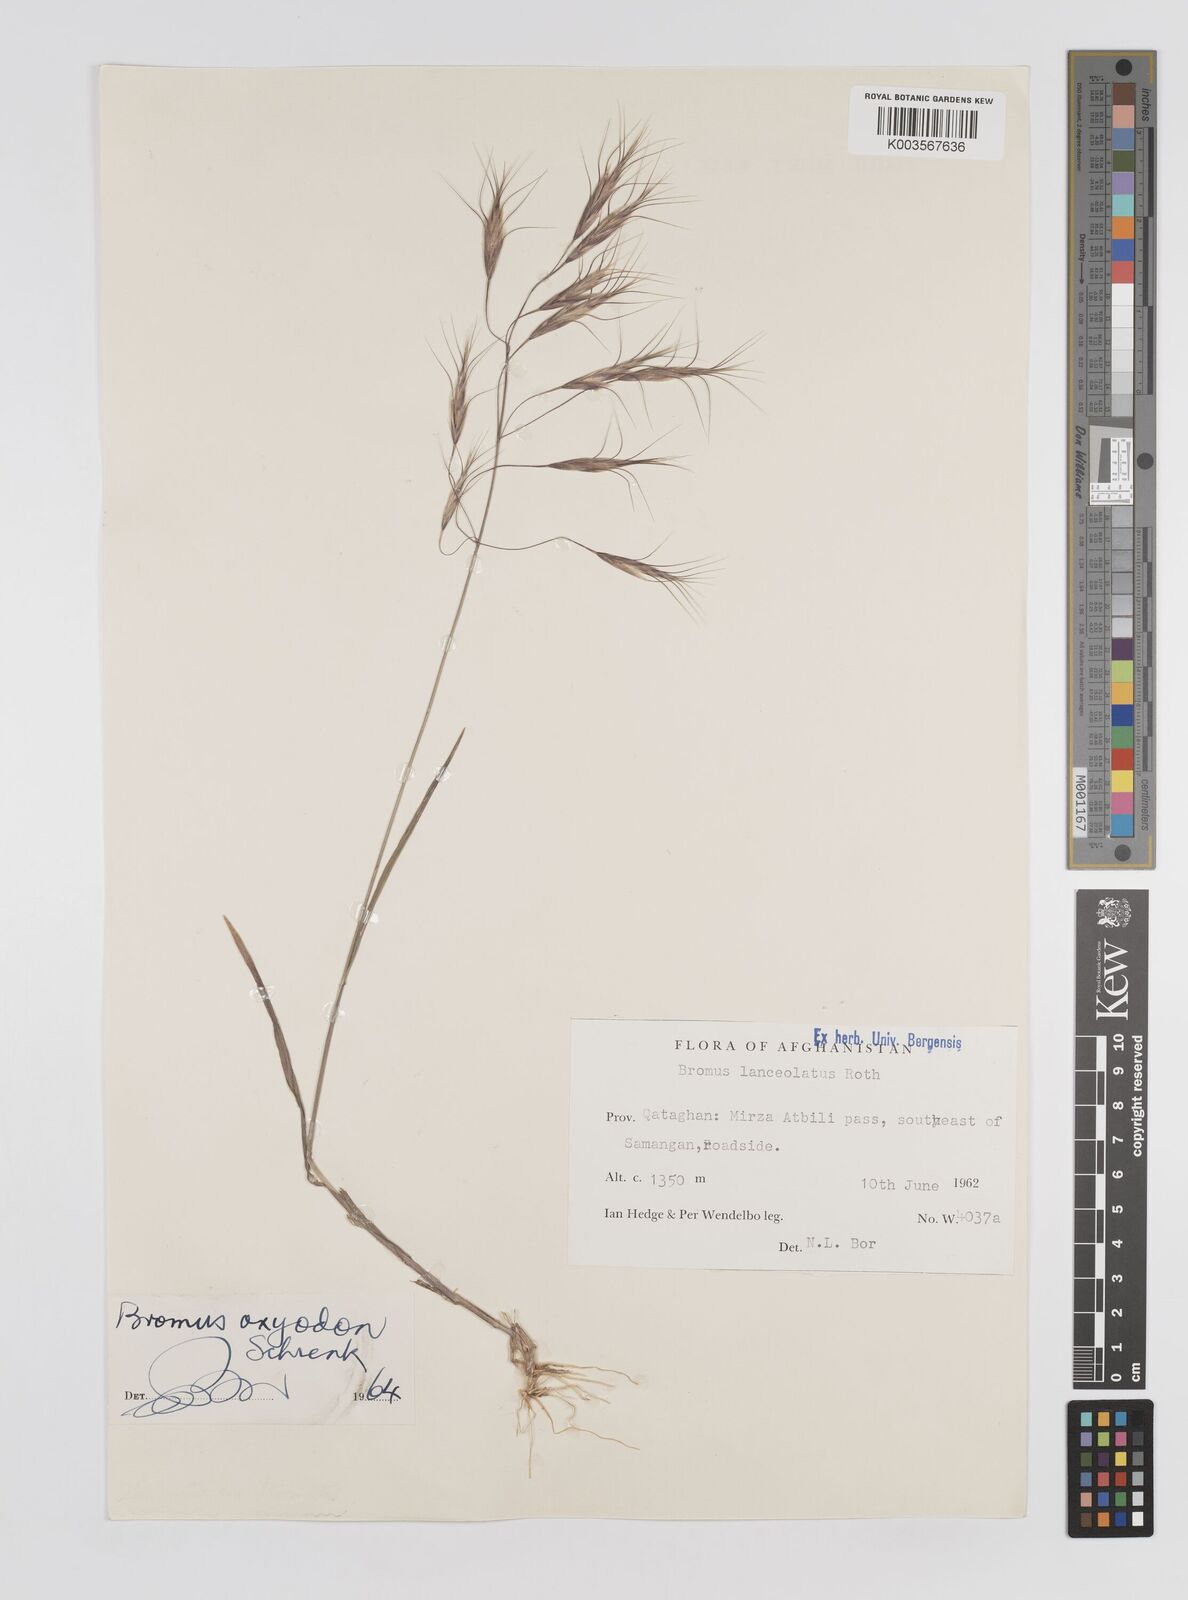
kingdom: Plantae
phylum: Tracheophyta
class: Liliopsida
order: Poales
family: Poaceae
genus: Bromus
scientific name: Bromus oxyodon
